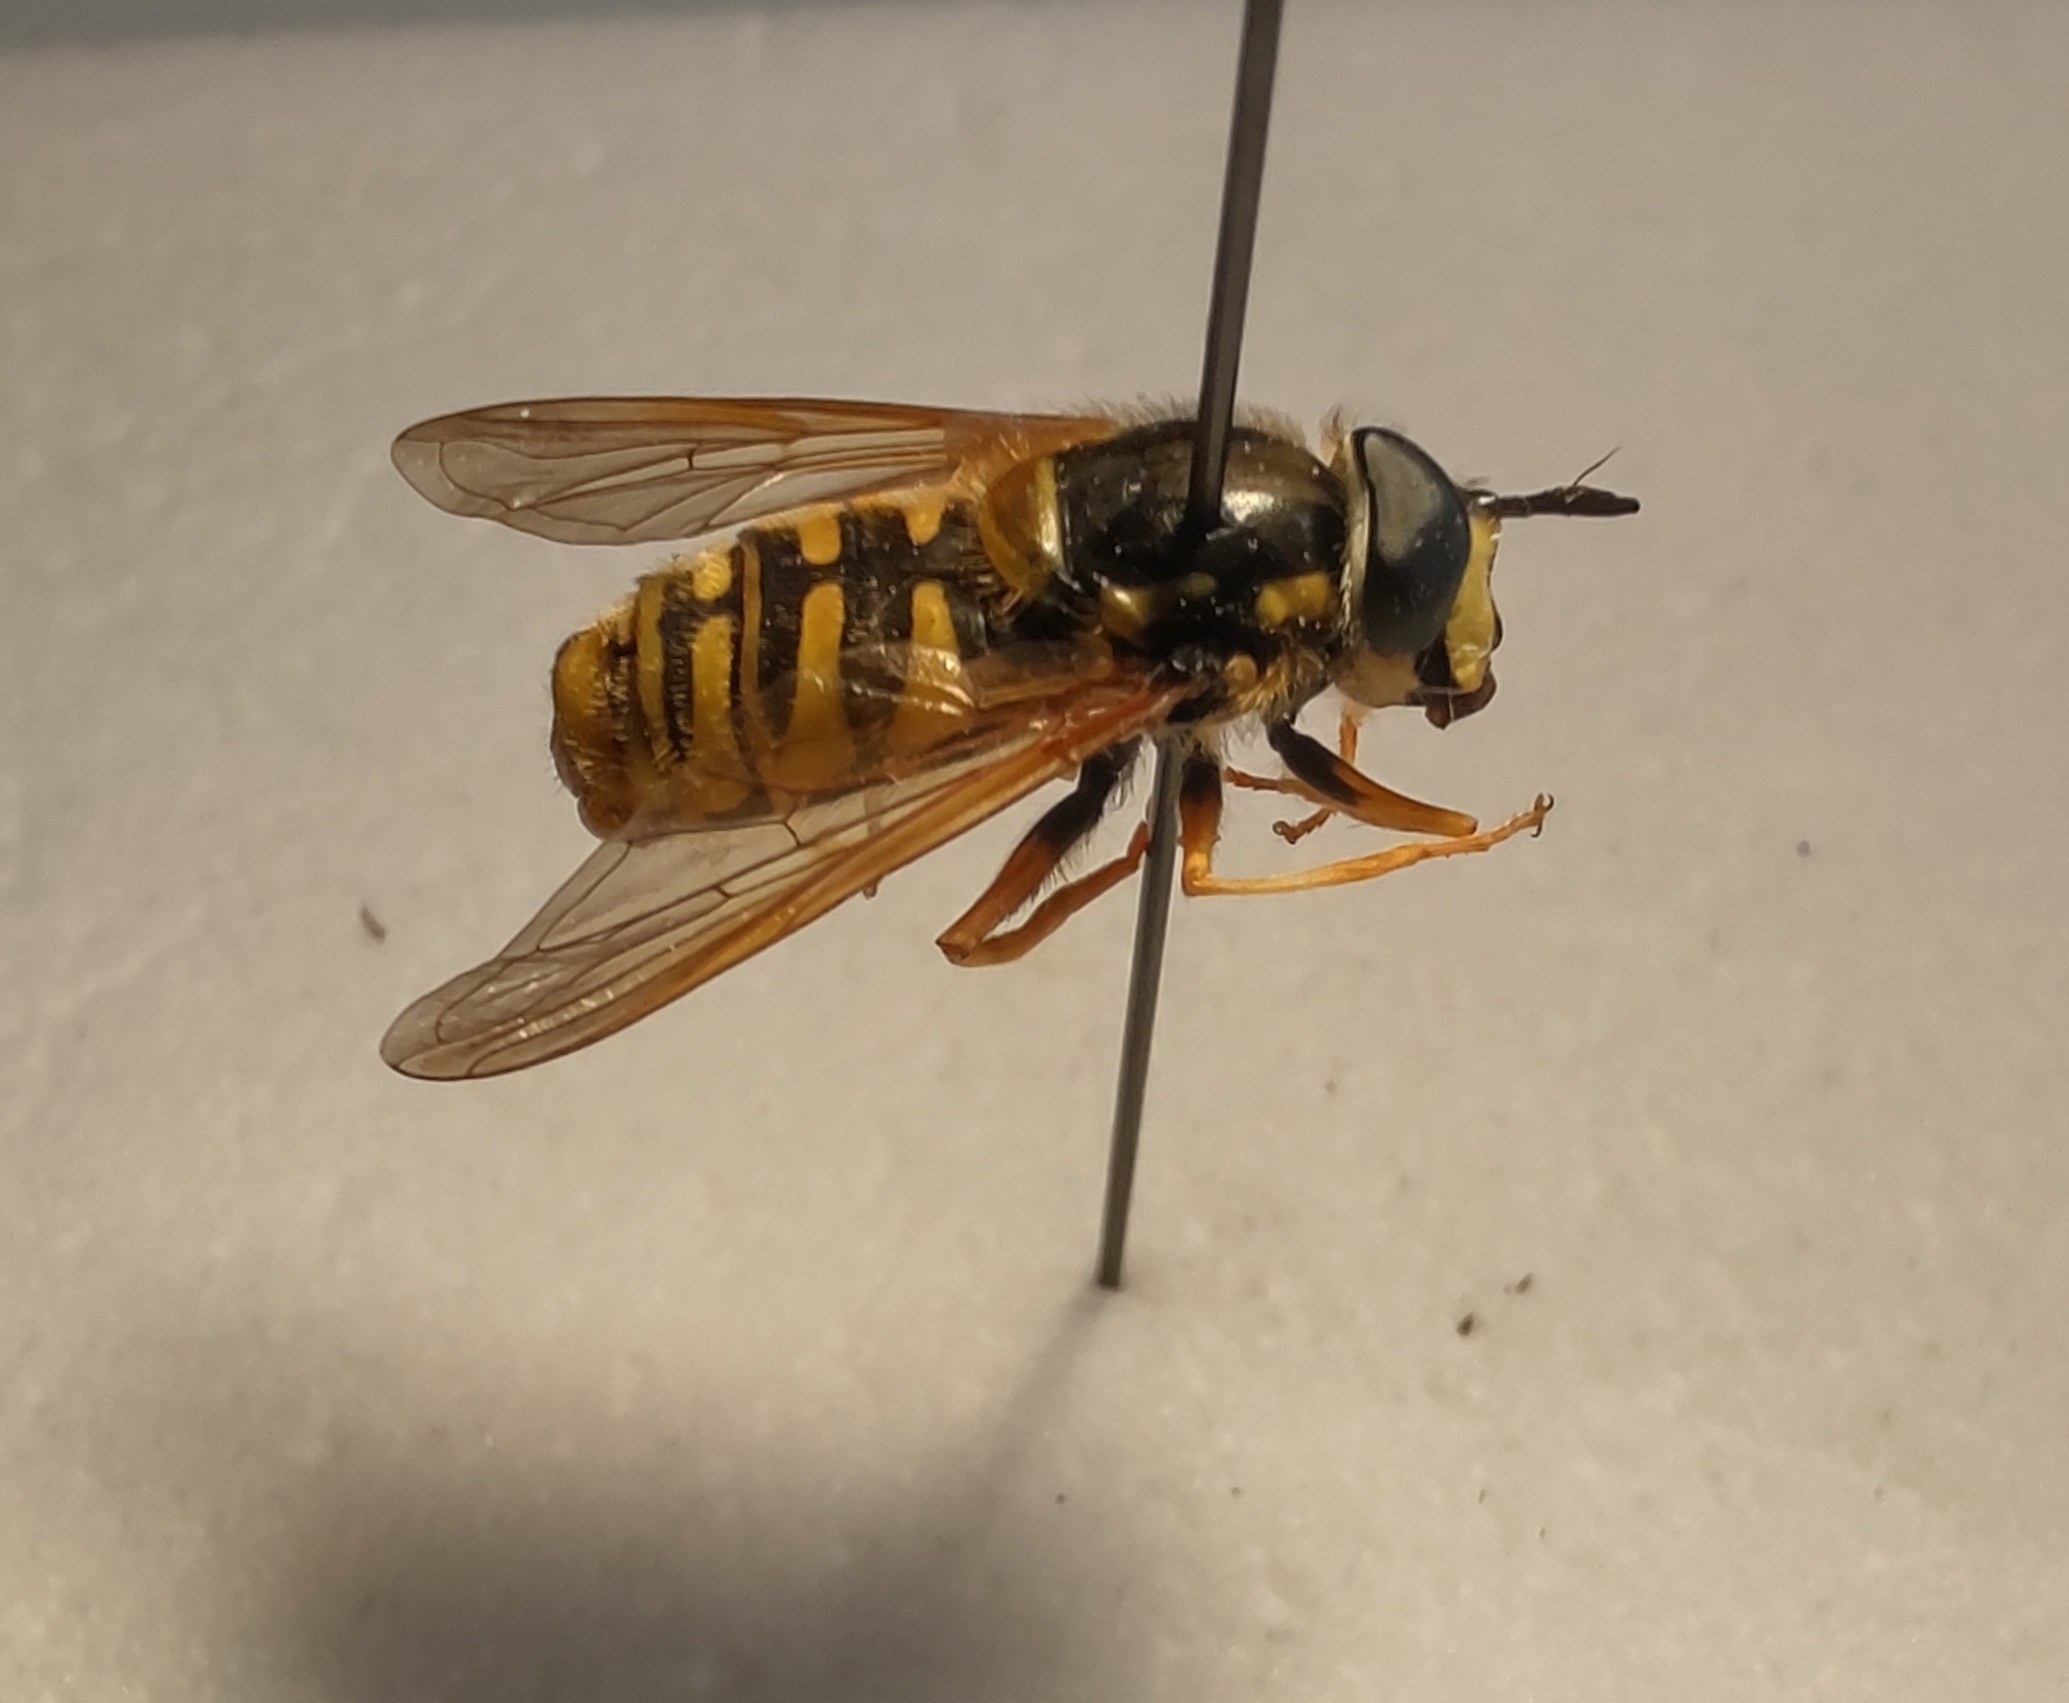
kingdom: Animalia
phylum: Arthropoda
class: Insecta
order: Diptera
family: Syrphidae
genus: Chrysotoxum
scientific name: Chrysotoxum cautum
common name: Stor hvepsesvirreflue
